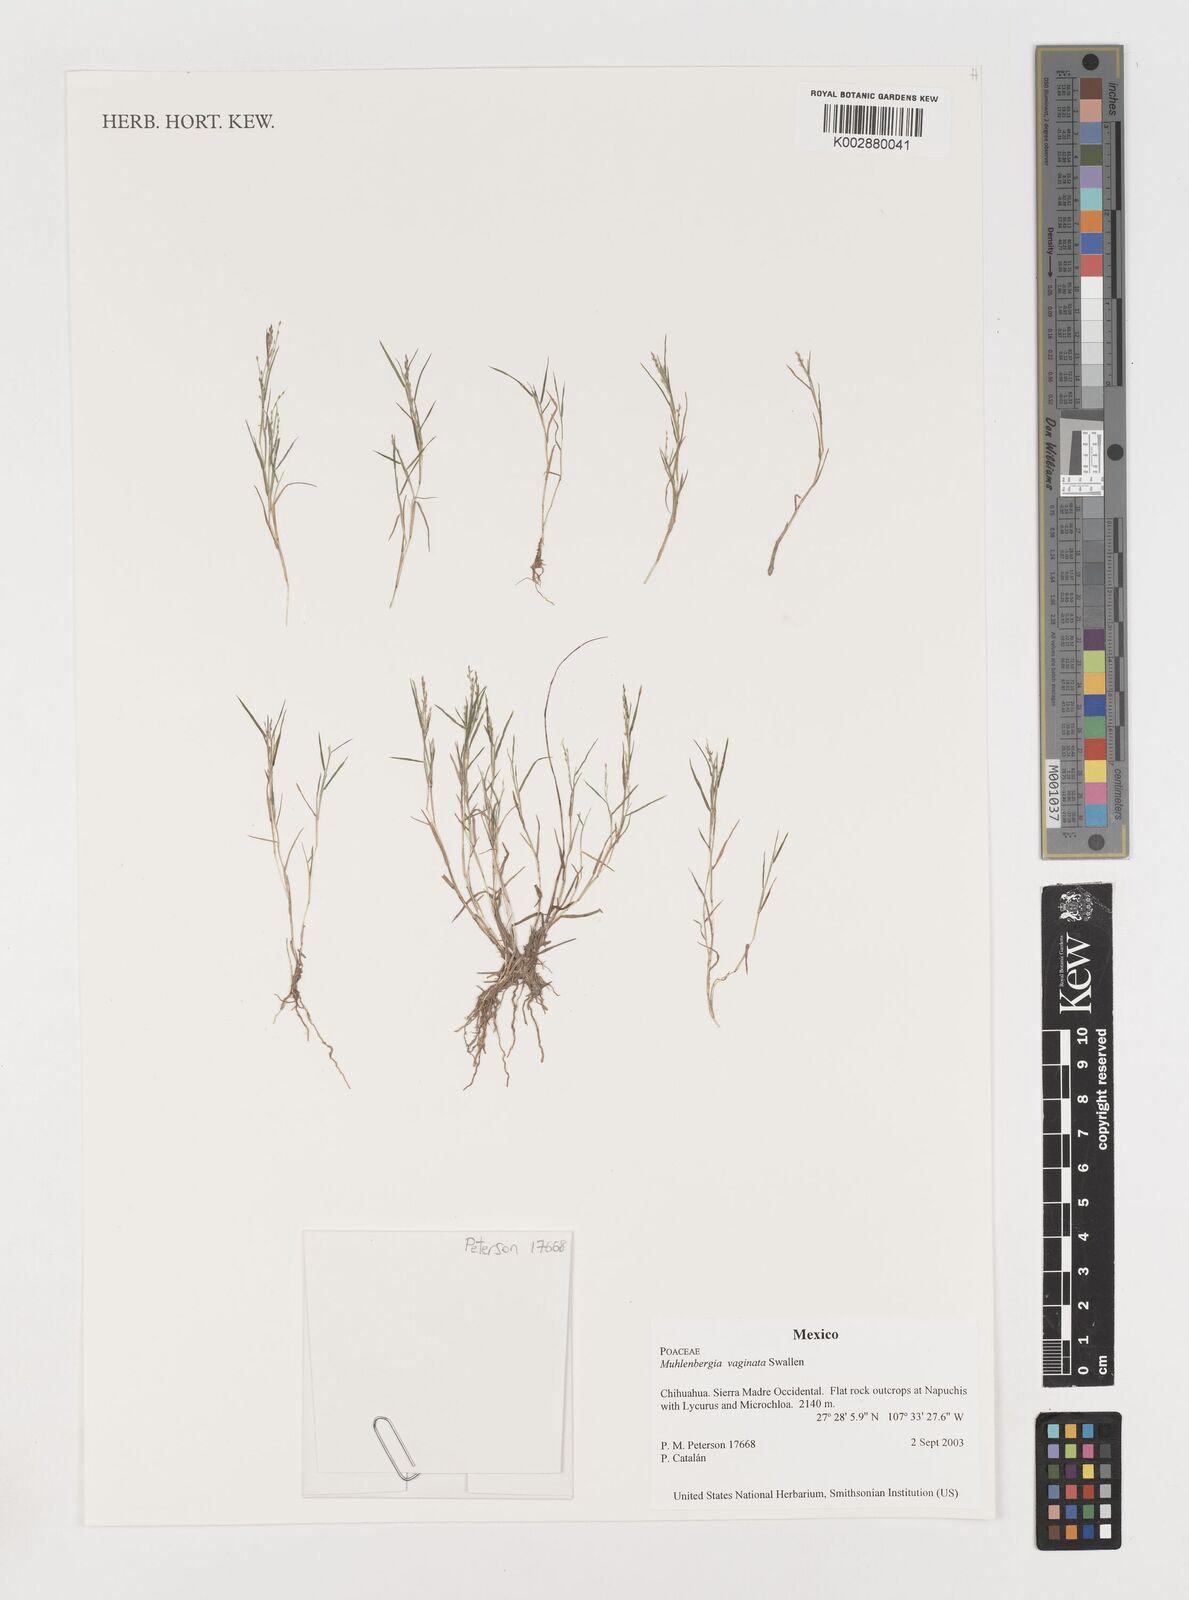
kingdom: Plantae
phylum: Tracheophyta
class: Liliopsida
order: Poales
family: Poaceae
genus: Muhlenbergia
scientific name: Muhlenbergia vaginata
